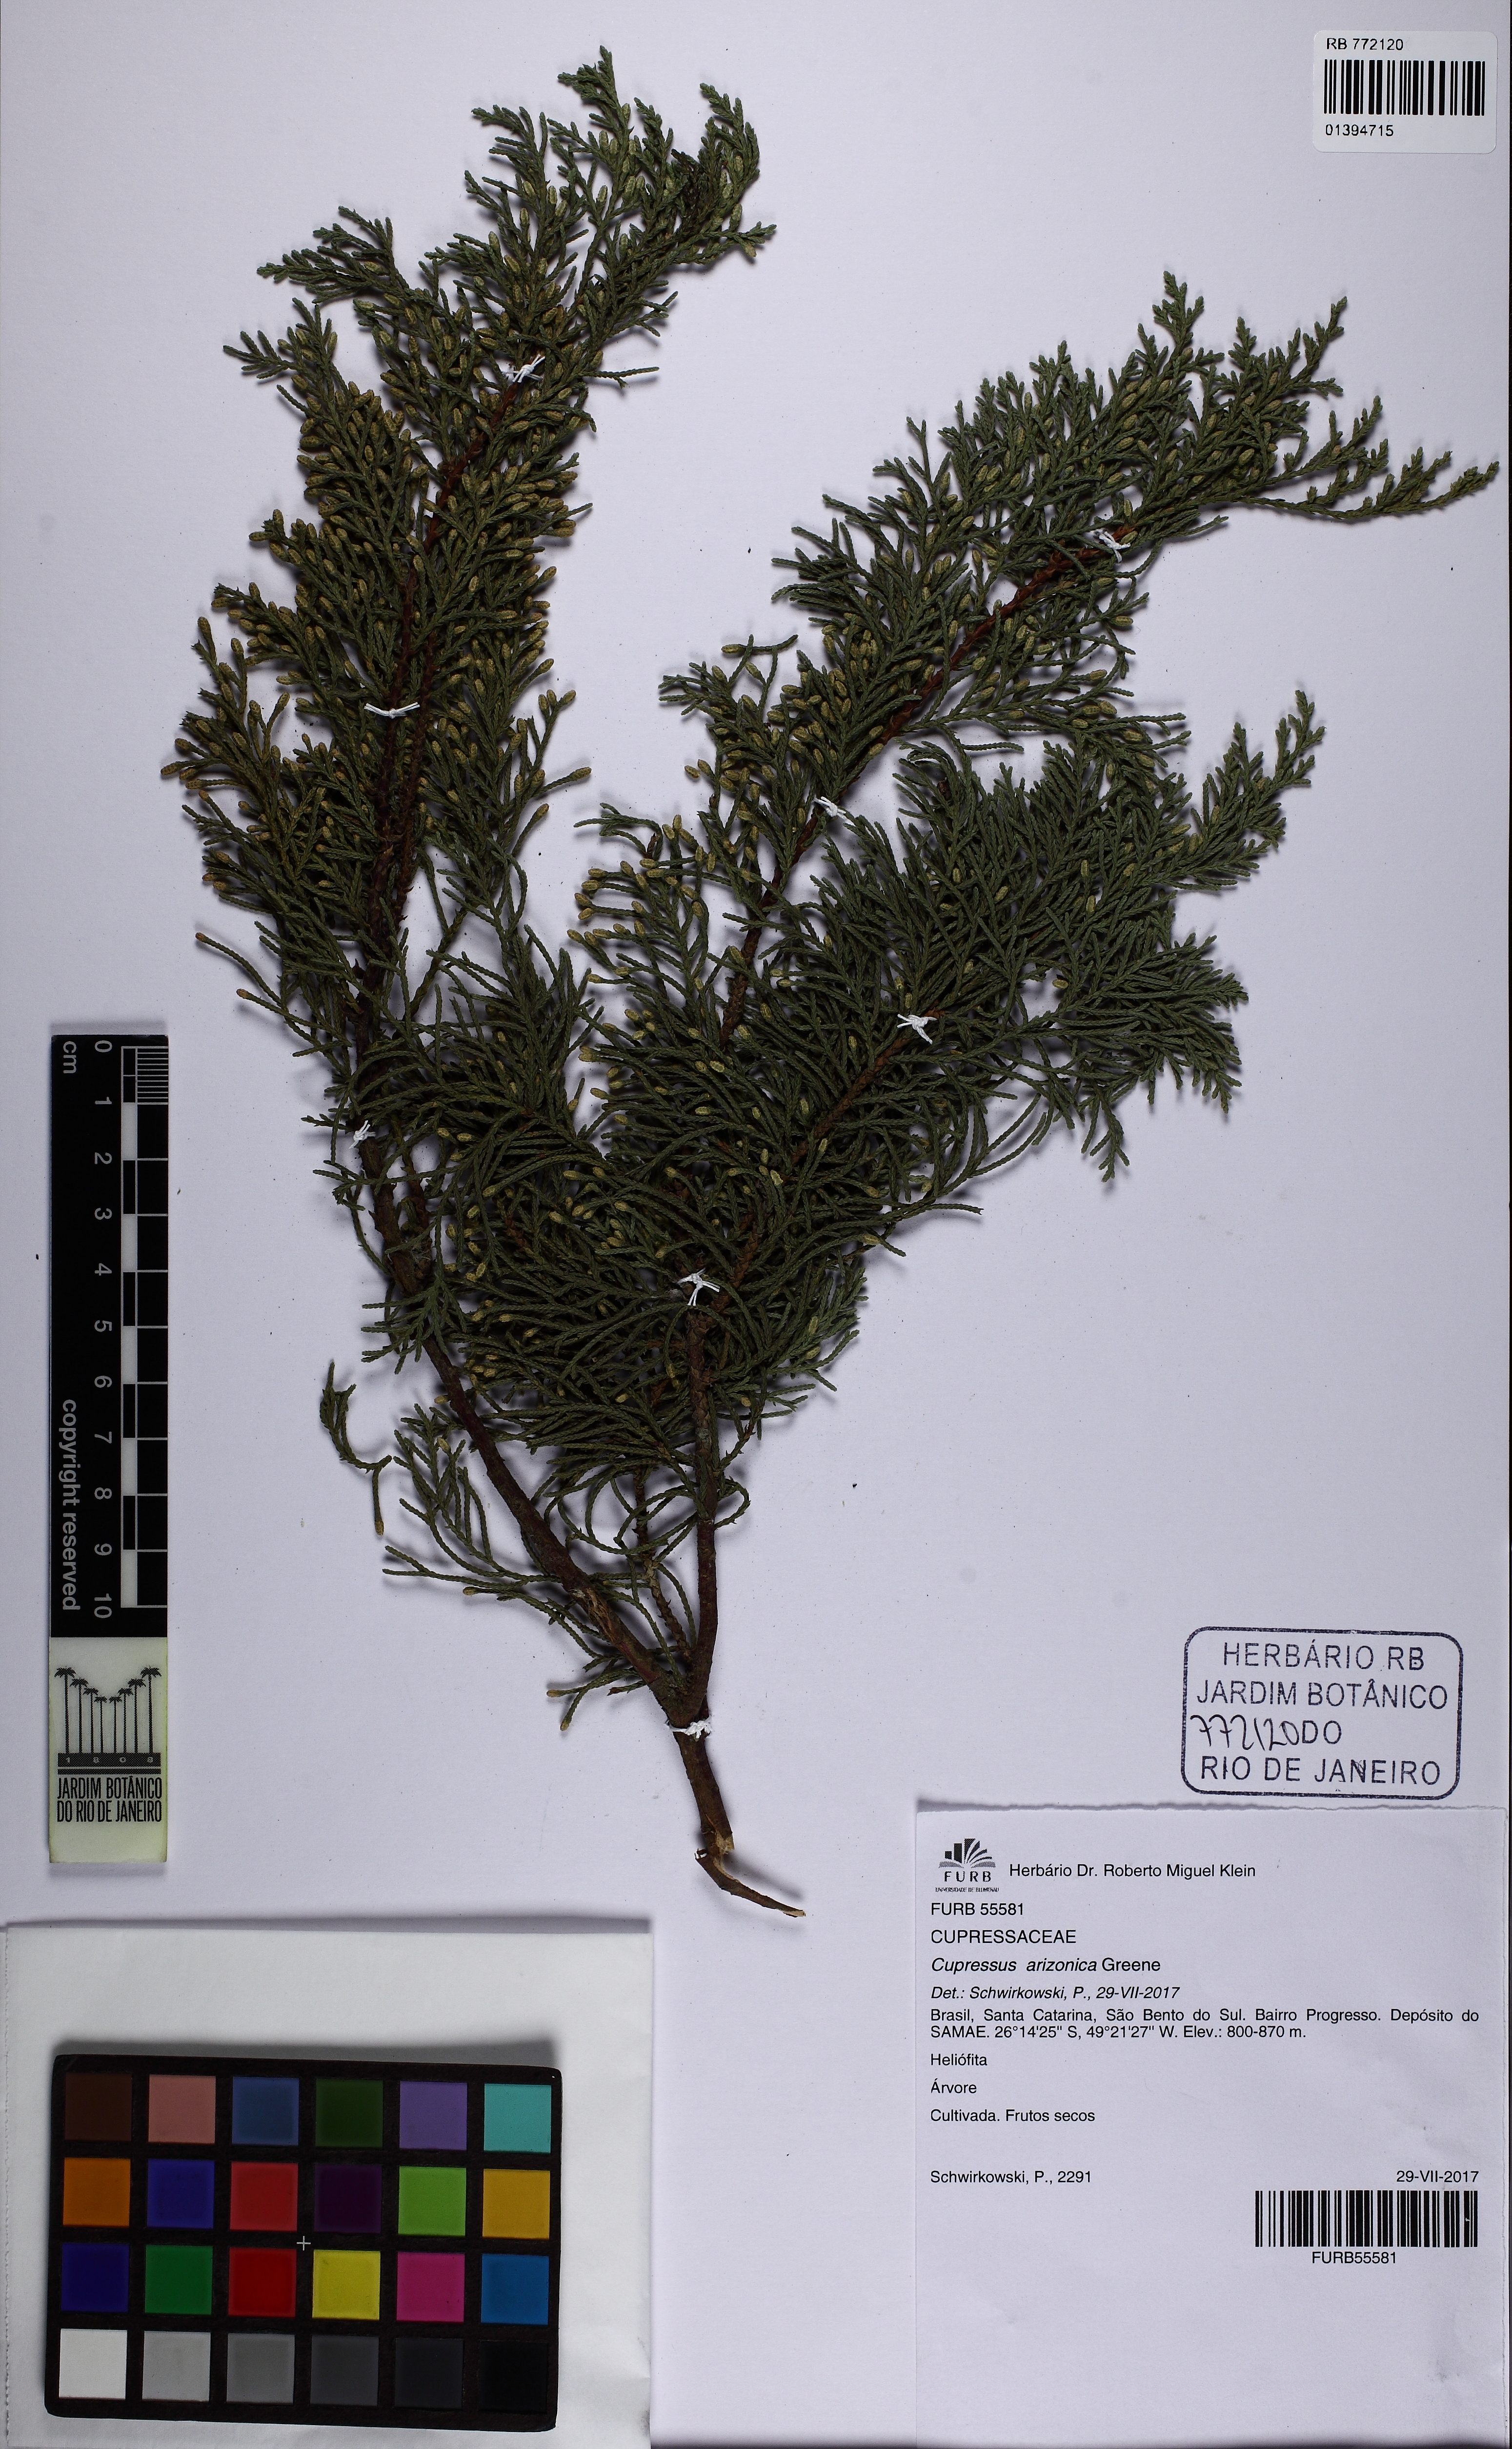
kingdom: Plantae
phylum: Tracheophyta
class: Pinopsida
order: Pinales
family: Cupressaceae
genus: Cupressus
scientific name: Cupressus arizonica
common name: Arizona cypress
